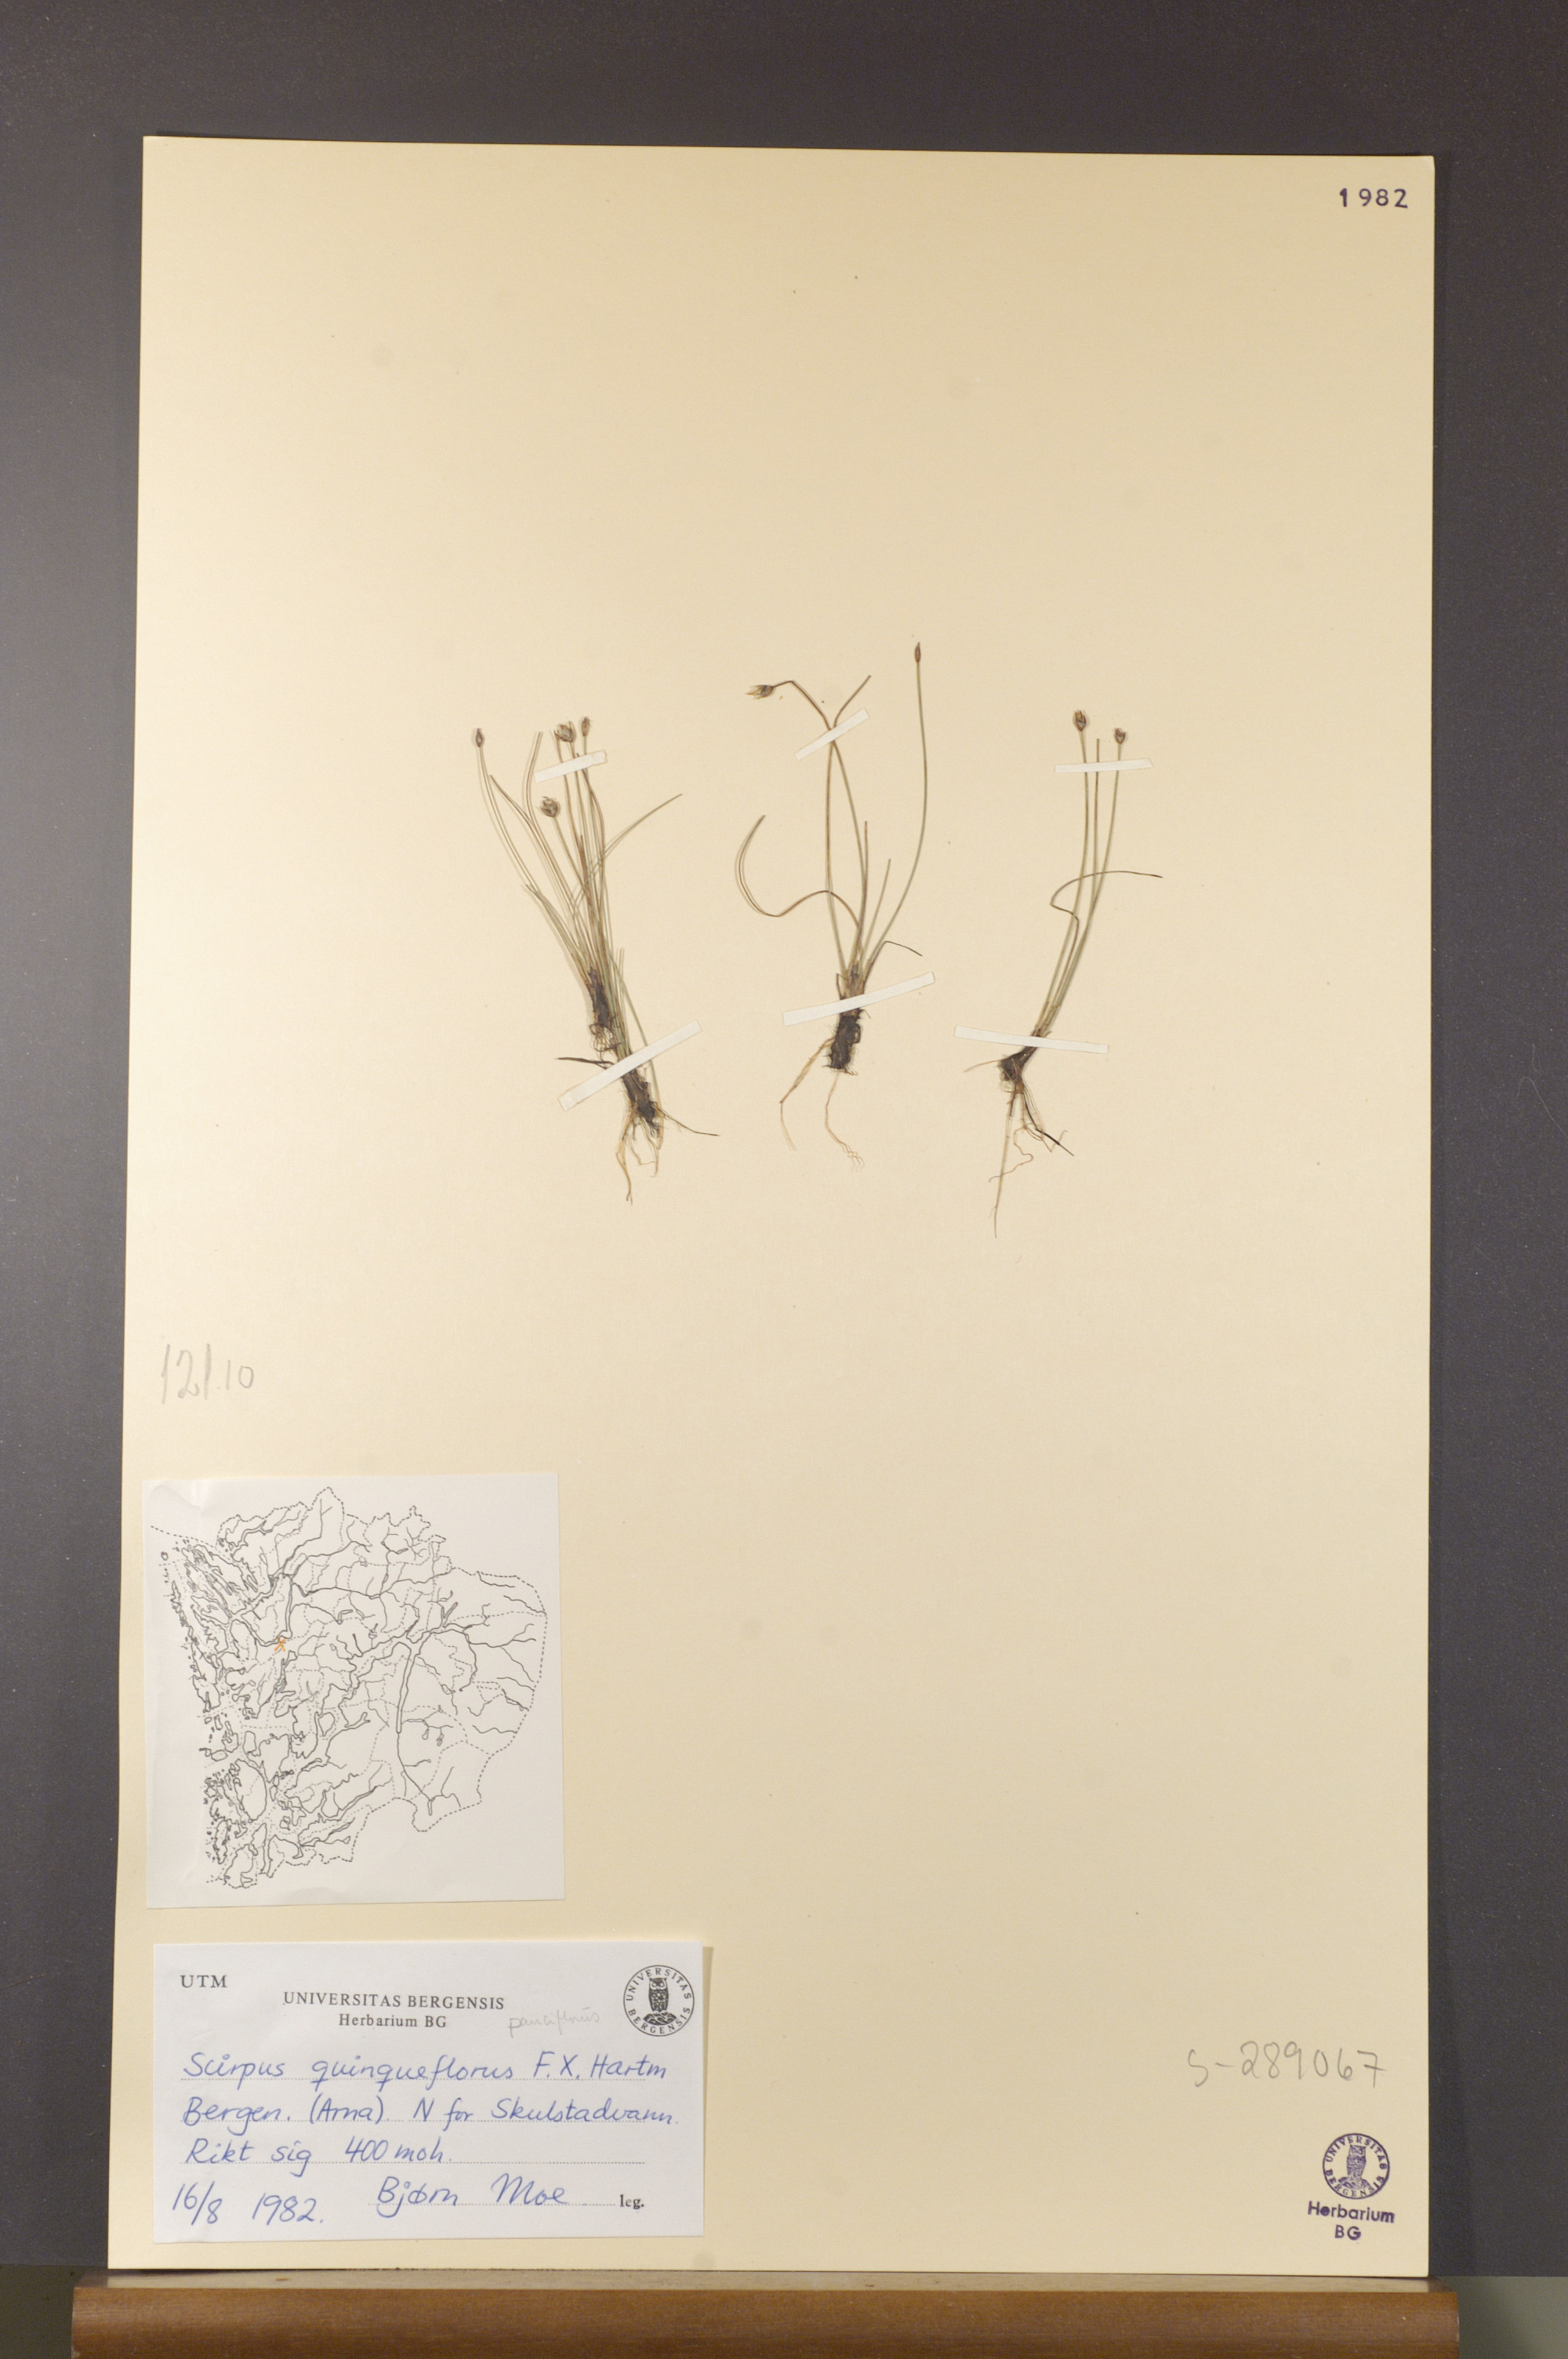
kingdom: Plantae
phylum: Tracheophyta
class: Liliopsida
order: Poales
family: Cyperaceae
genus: Eleocharis
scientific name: Eleocharis quinqueflora
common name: Few-flowered spike-rush
